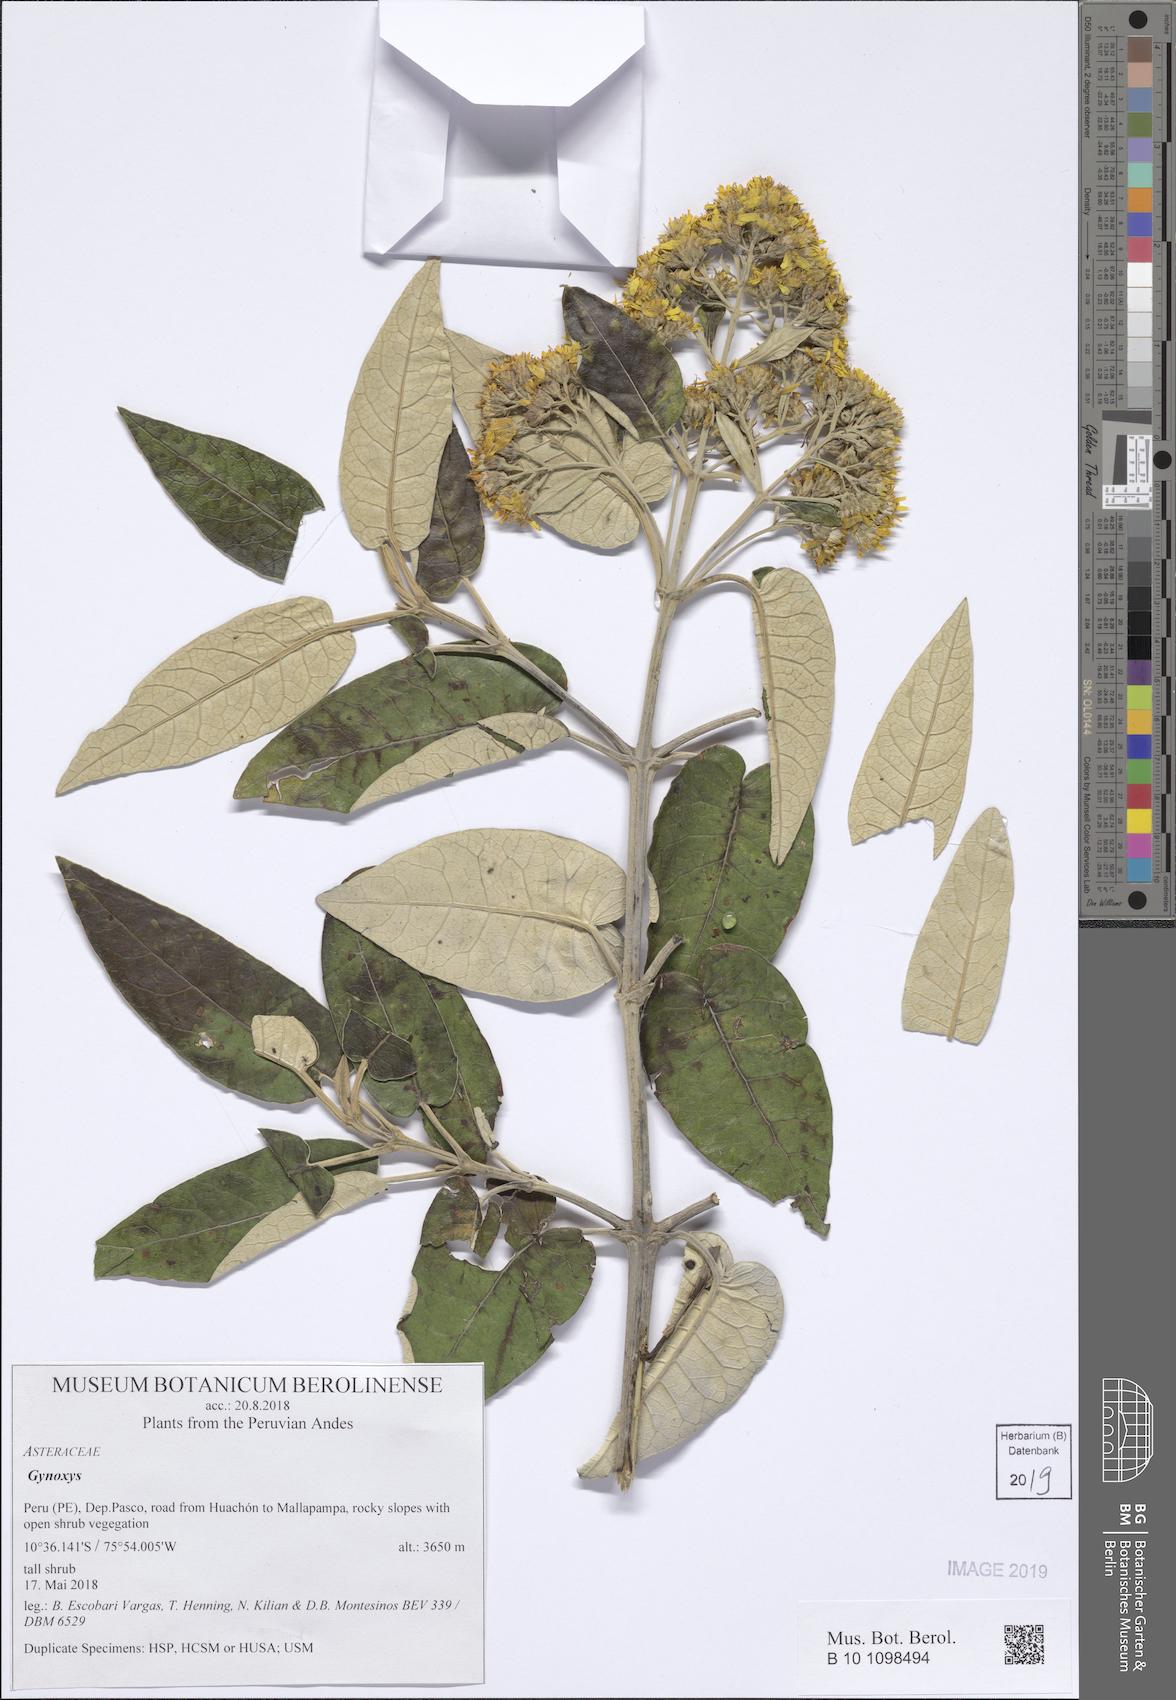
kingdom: Plantae
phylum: Tracheophyta
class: Magnoliopsida
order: Asterales
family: Asteraceae
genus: Gynoxys
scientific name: Gynoxys
